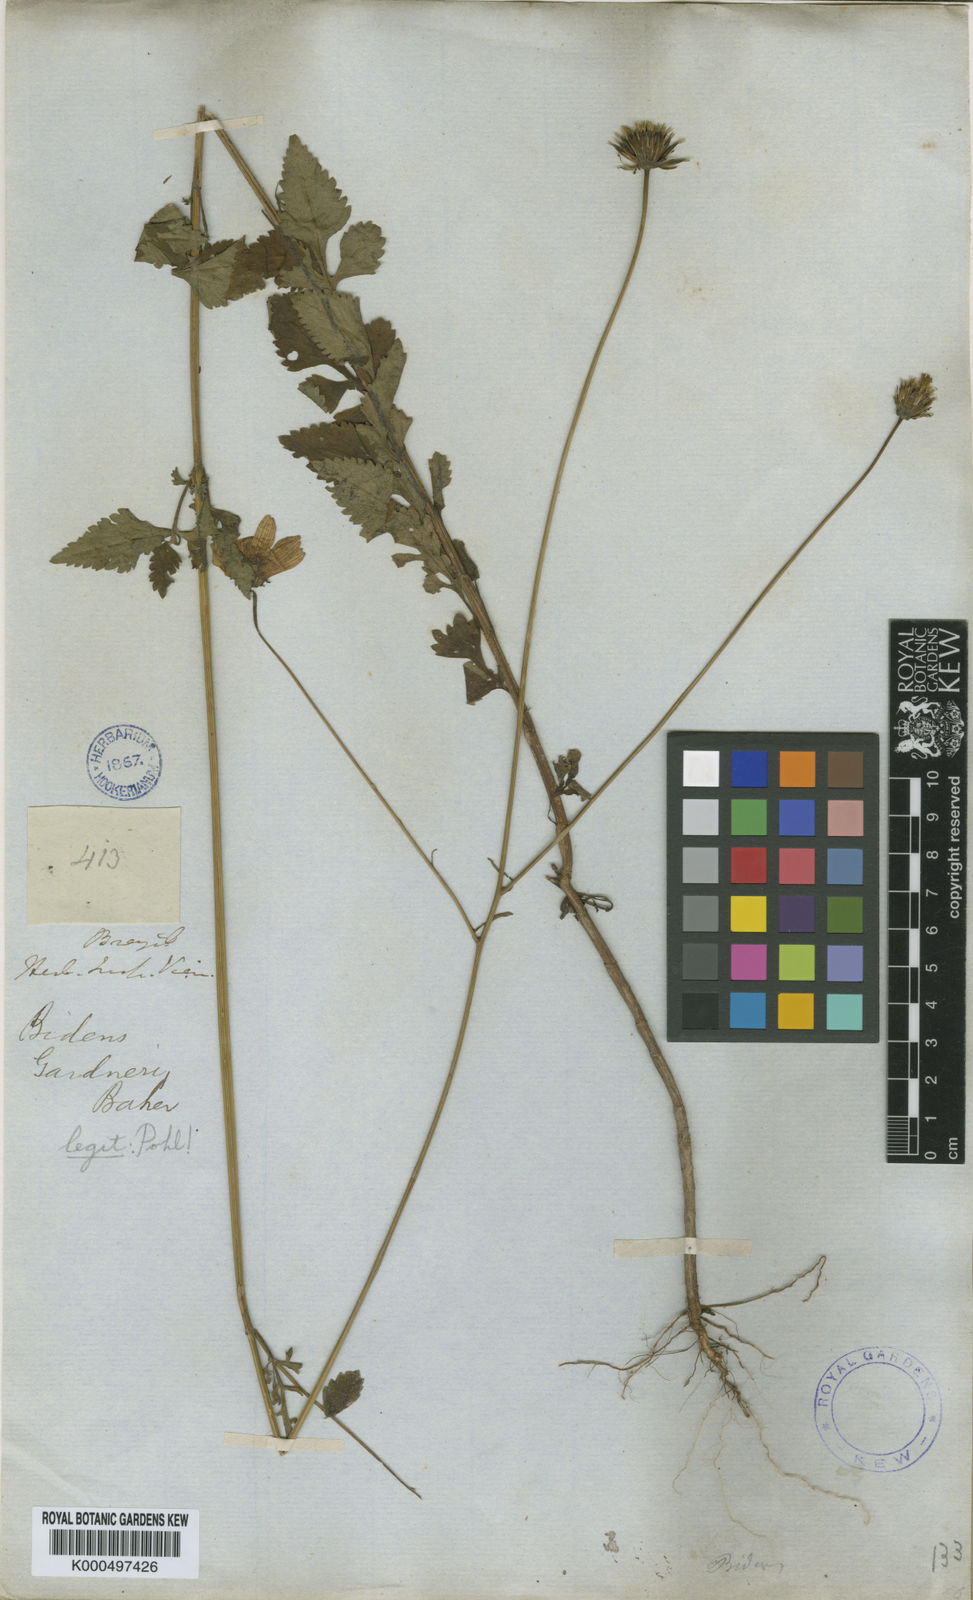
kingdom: Plantae
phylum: Tracheophyta
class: Magnoliopsida
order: Asterales
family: Asteraceae
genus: Bidens
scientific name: Bidens gardneri
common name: Ridge beggartick
